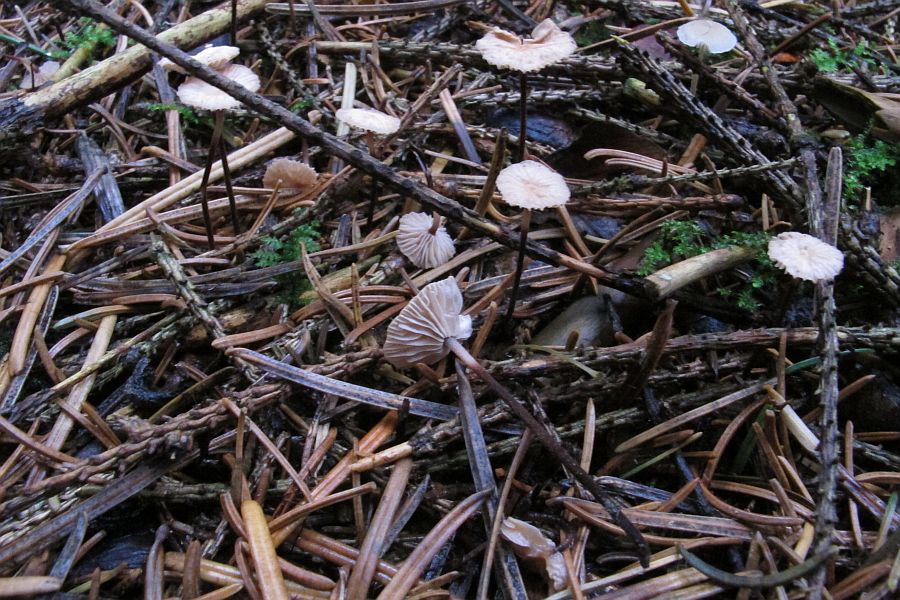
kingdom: Fungi
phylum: Basidiomycota
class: Agaricomycetes
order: Agaricales
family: Omphalotaceae
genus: Paragymnopus
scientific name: Paragymnopus perforans
